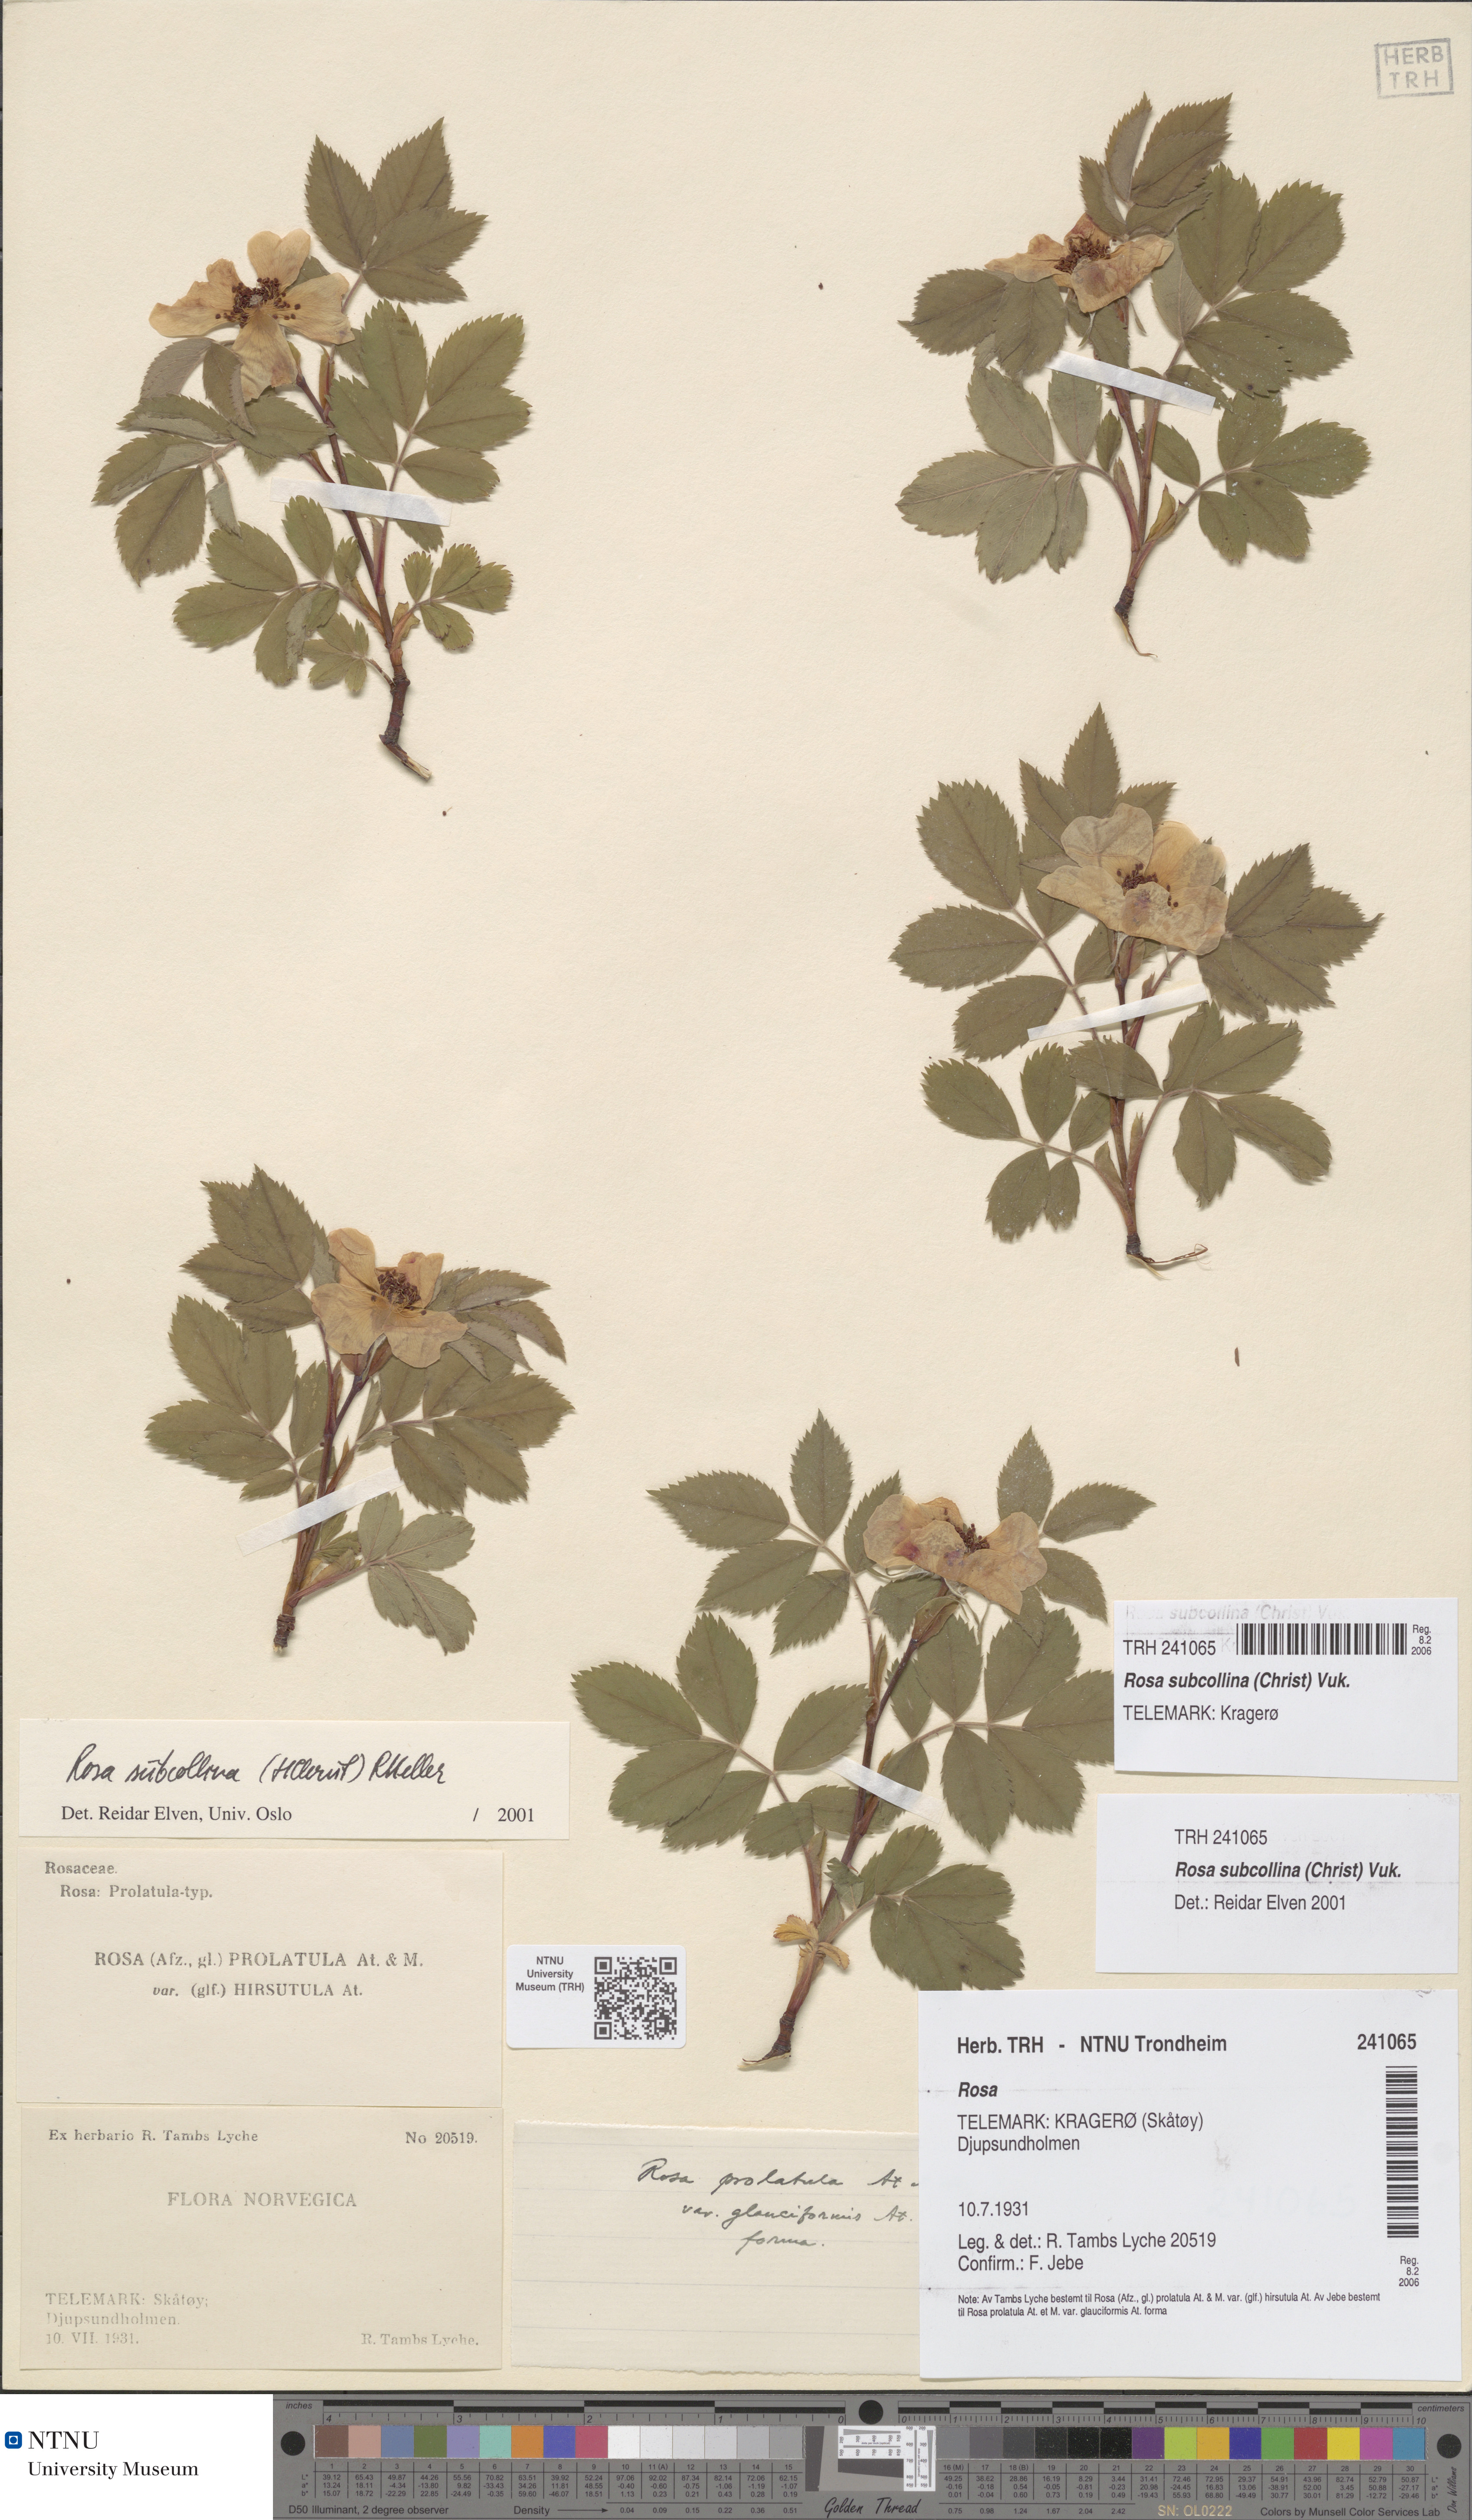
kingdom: Plantae
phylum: Tracheophyta
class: Magnoliopsida
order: Rosales
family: Rosaceae
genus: Rosa
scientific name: Rosa subcollina
